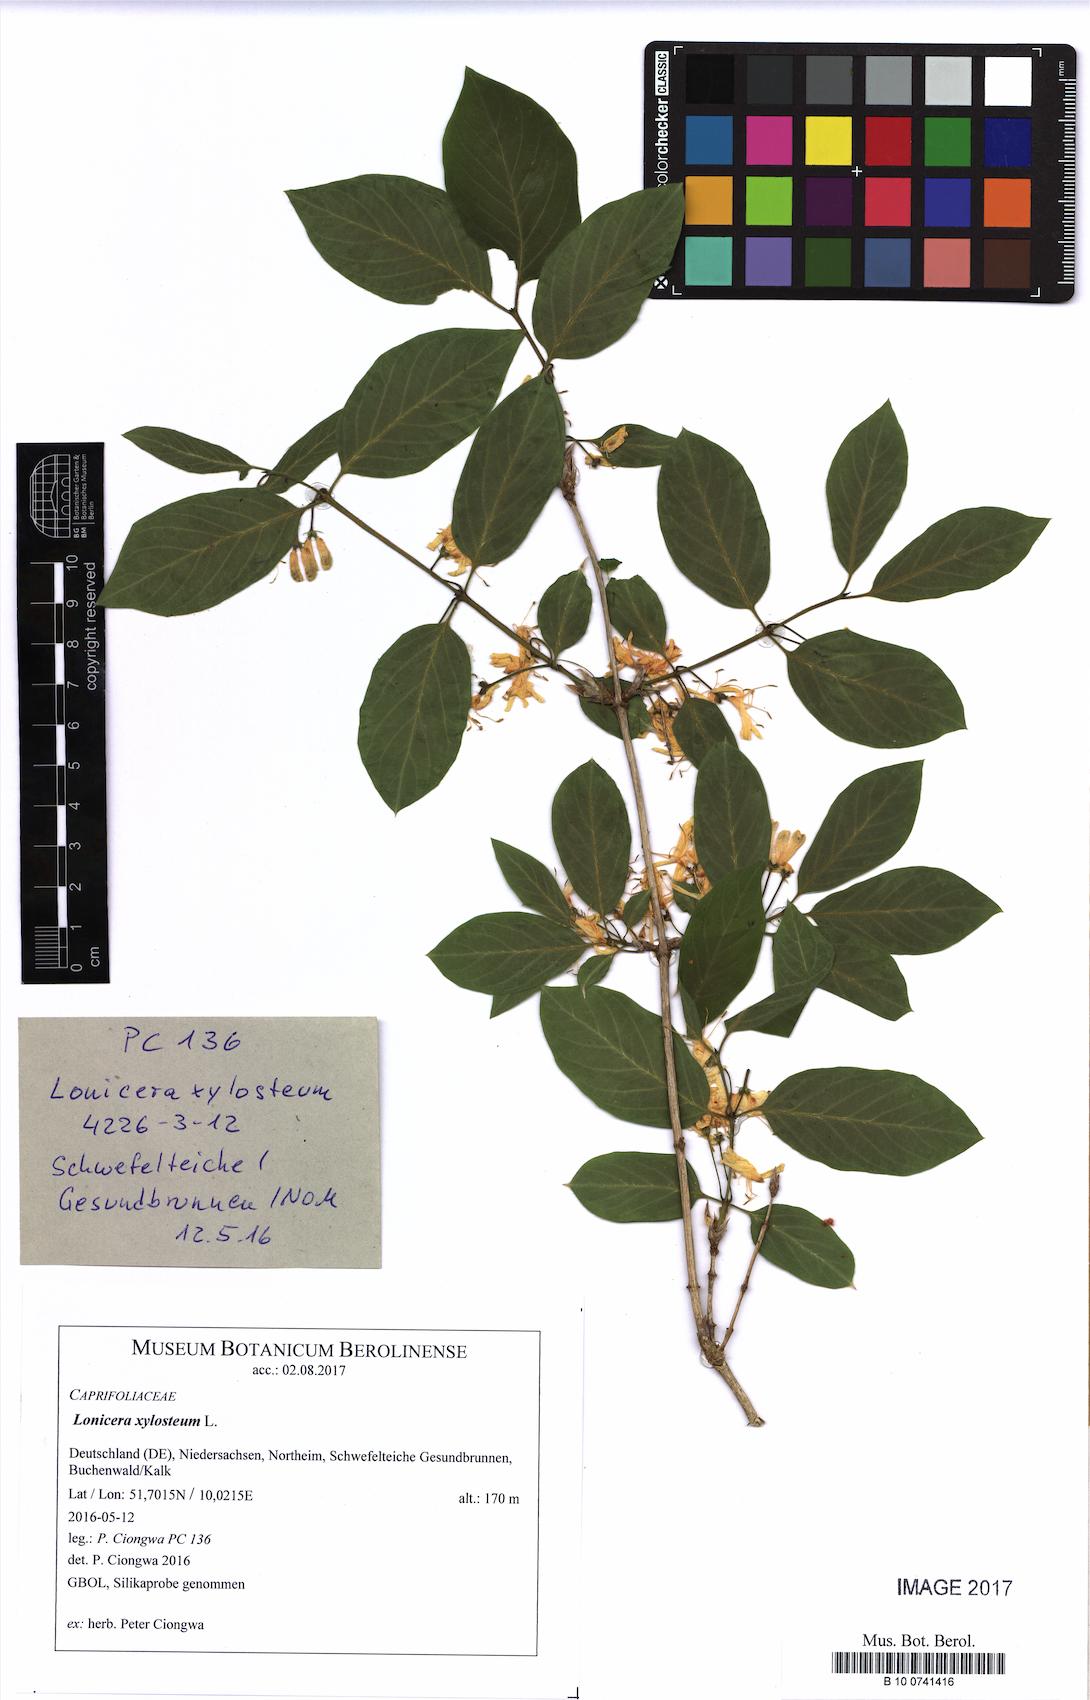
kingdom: Plantae
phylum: Tracheophyta
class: Magnoliopsida
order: Dipsacales
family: Caprifoliaceae
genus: Lonicera
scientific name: Lonicera xylosteum
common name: Fly honeysuckle
